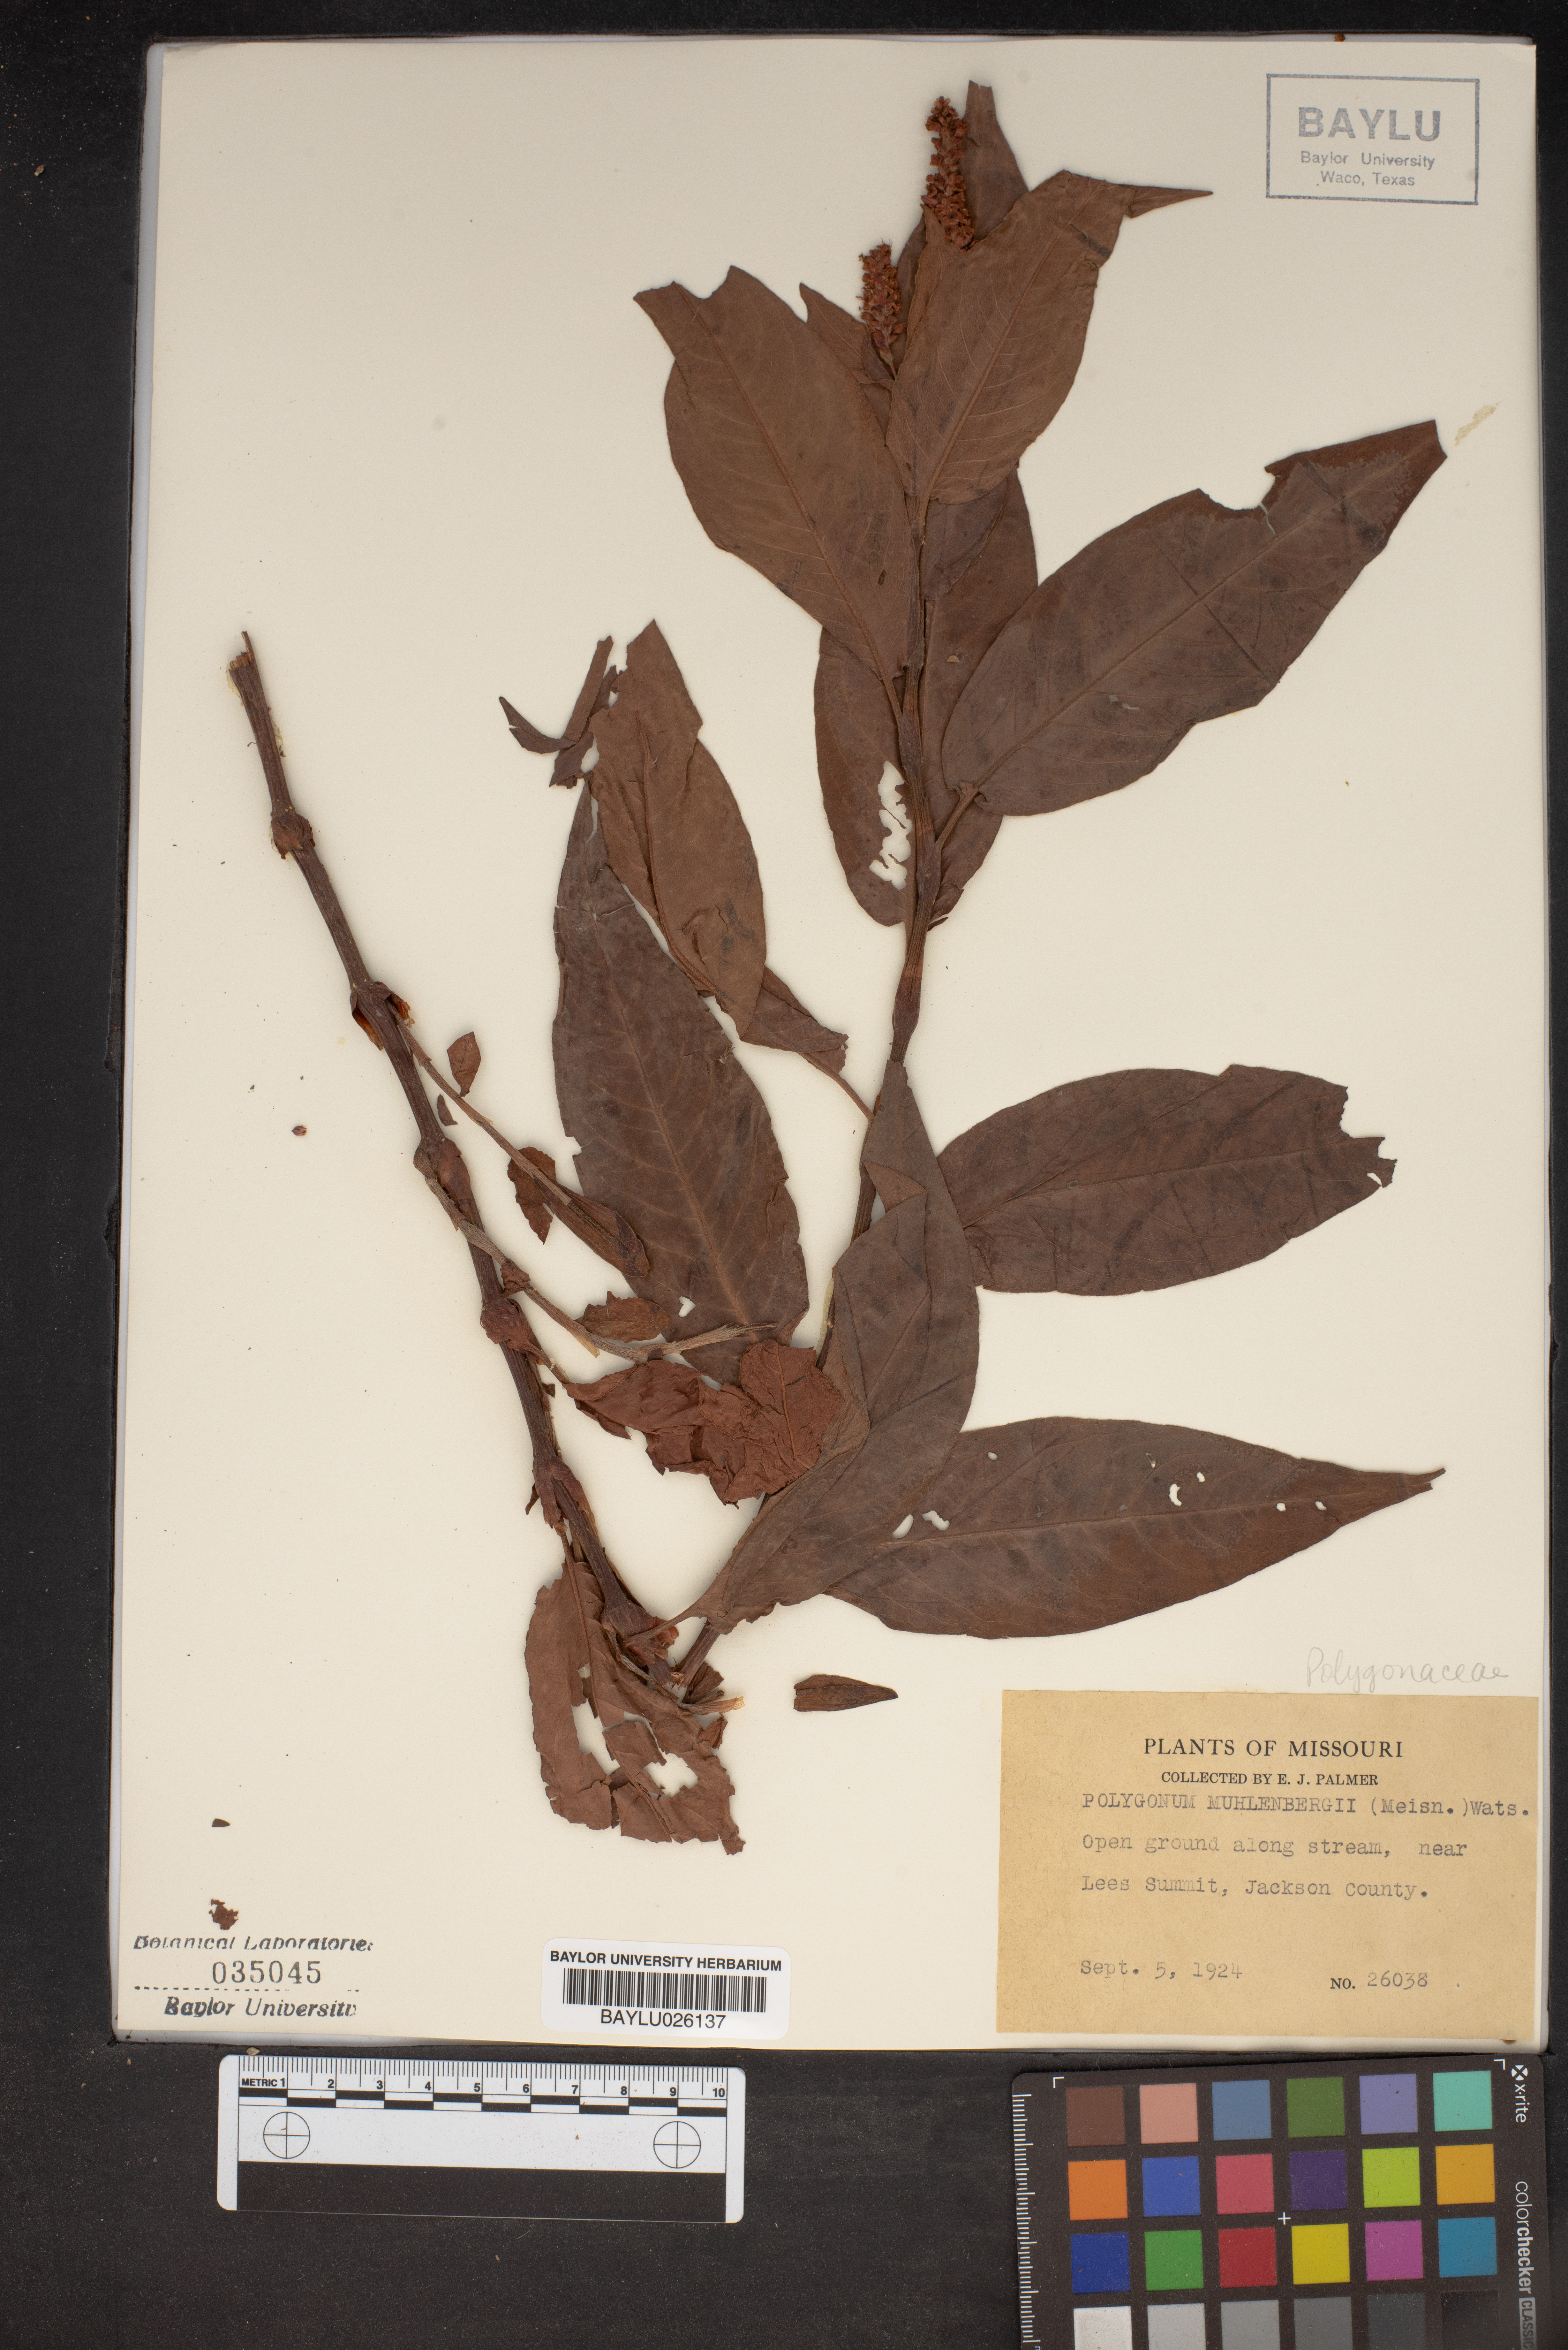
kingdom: Plantae
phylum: Tracheophyta
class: Magnoliopsida
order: Caryophyllales
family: Polygonaceae
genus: Persicaria
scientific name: Persicaria amphibia
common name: Amphibious bistort
